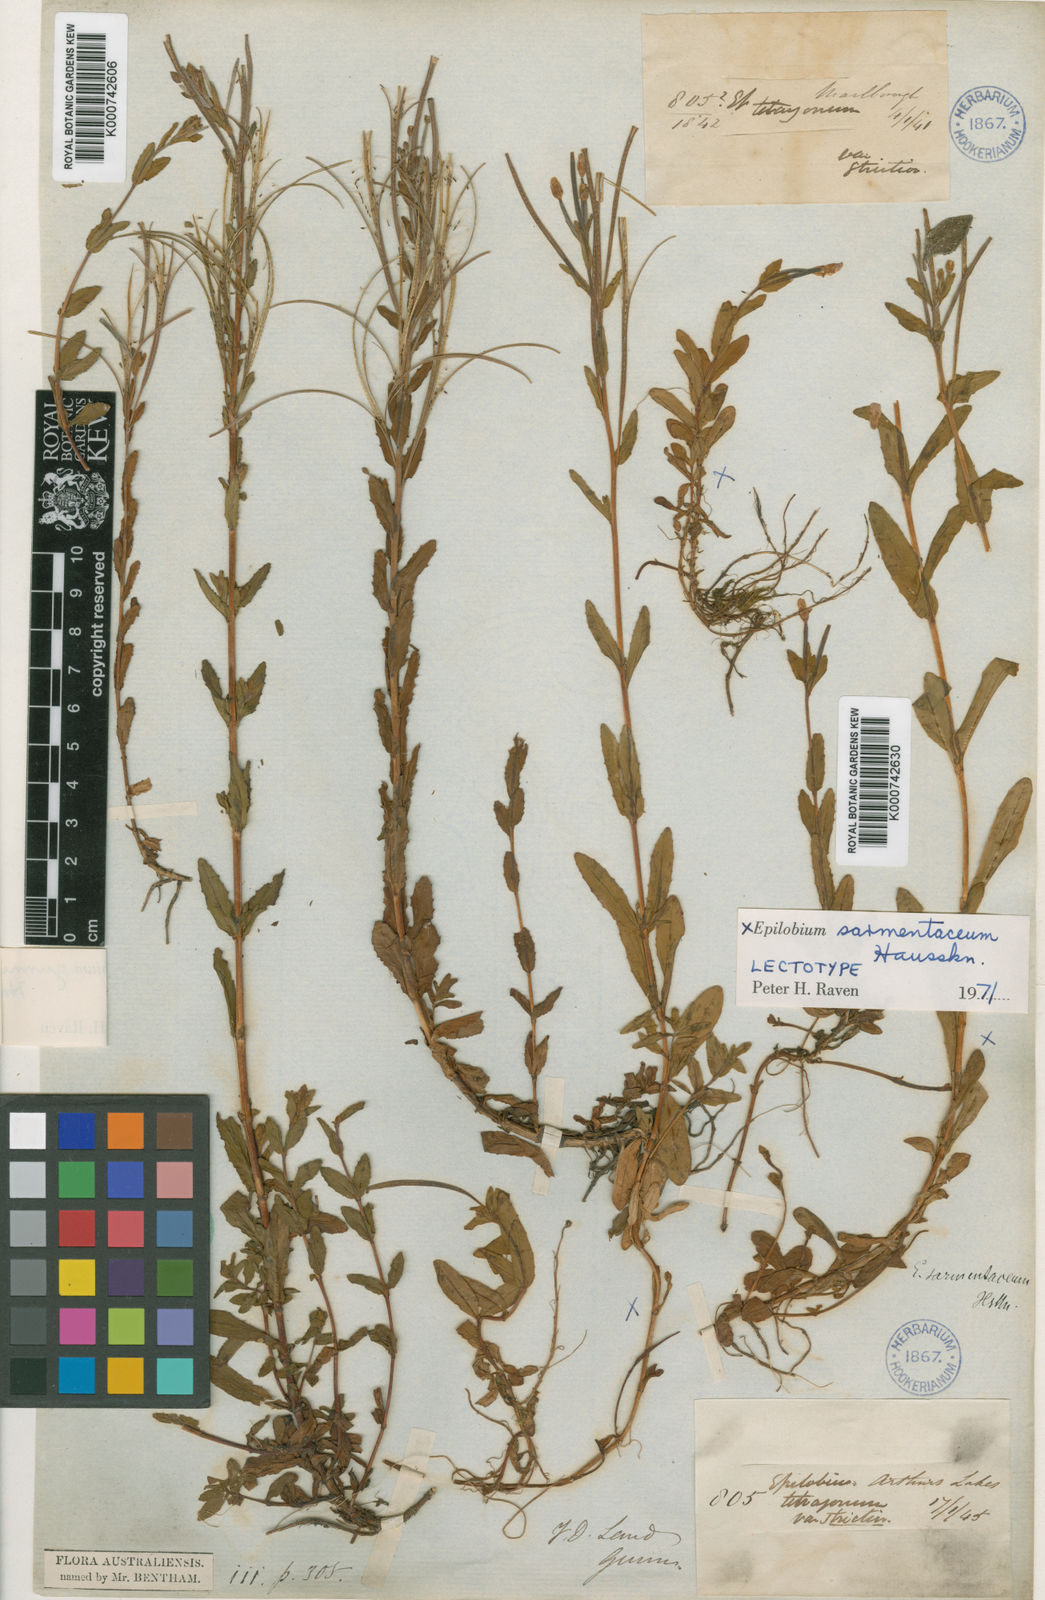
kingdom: Plantae
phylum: Tracheophyta
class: Magnoliopsida
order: Myrtales
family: Onagraceae
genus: Epilobium
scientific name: Epilobium sarmentaceum
